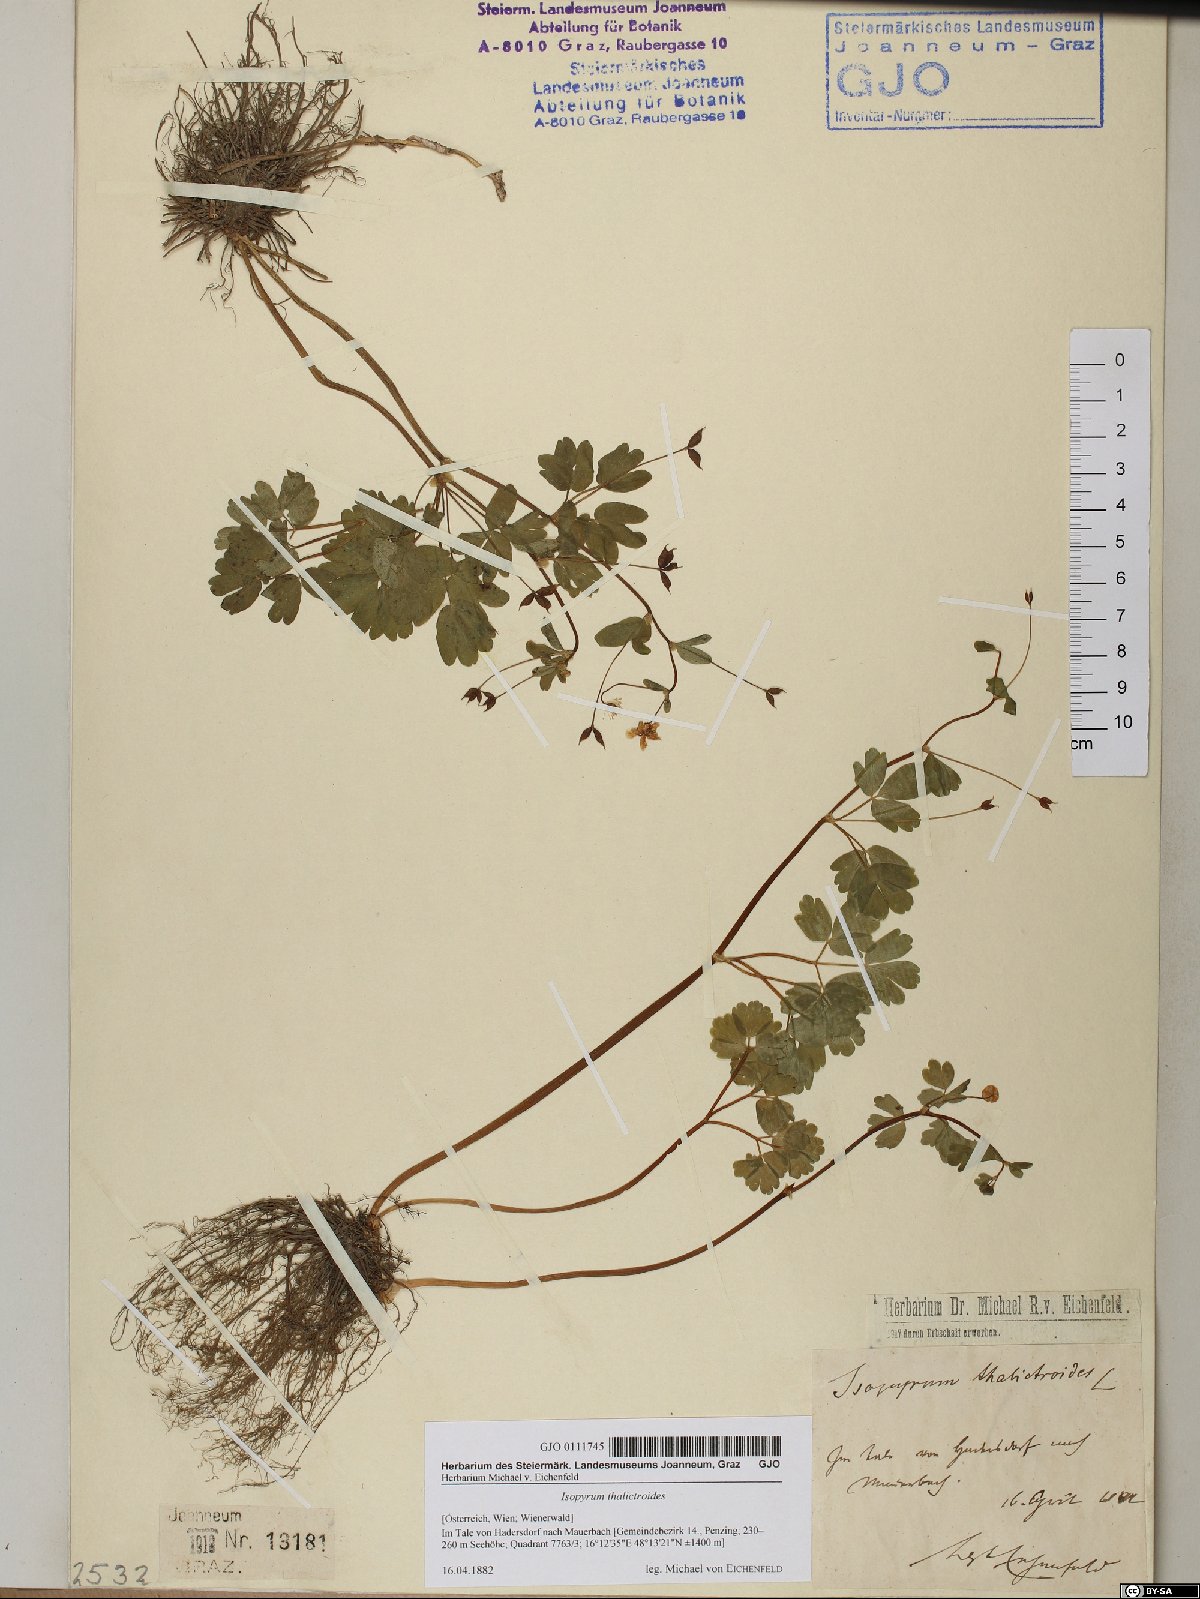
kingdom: Plantae
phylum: Tracheophyta
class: Magnoliopsida
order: Ranunculales
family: Ranunculaceae
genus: Isopyrum
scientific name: Isopyrum thalictroides
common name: Isopyrum
